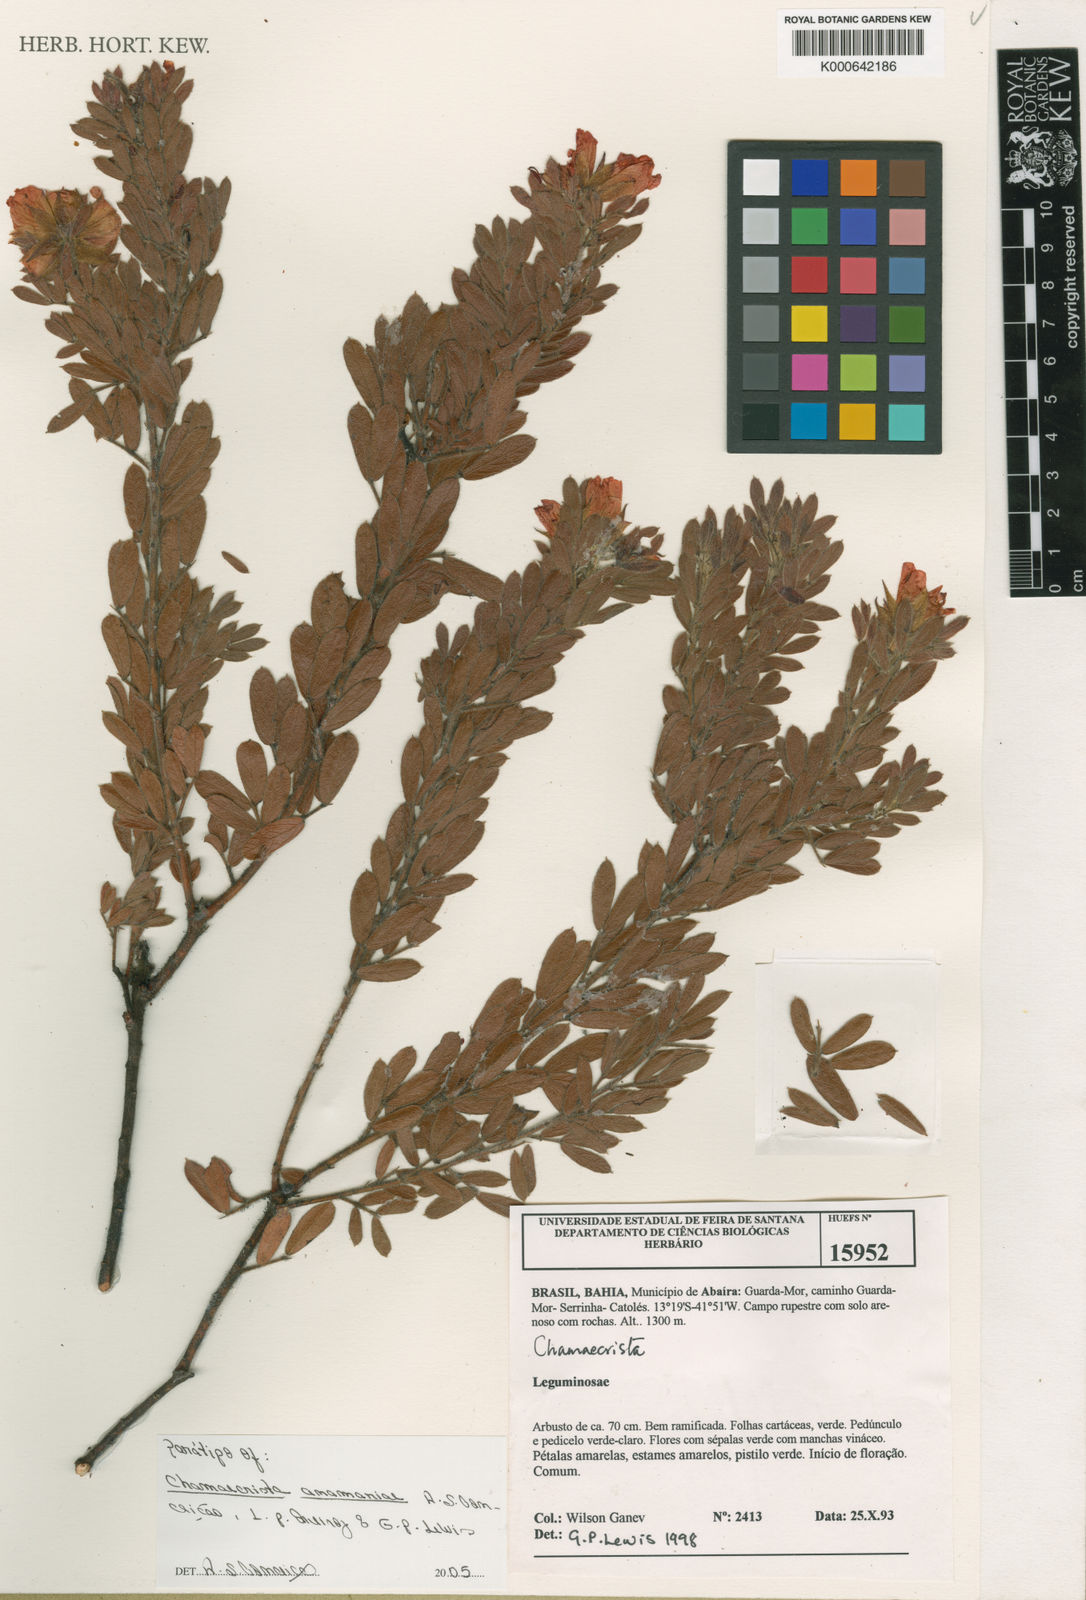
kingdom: Plantae
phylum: Tracheophyta
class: Magnoliopsida
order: Fabales
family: Fabaceae
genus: Chamaecrista
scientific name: Chamaecrista
